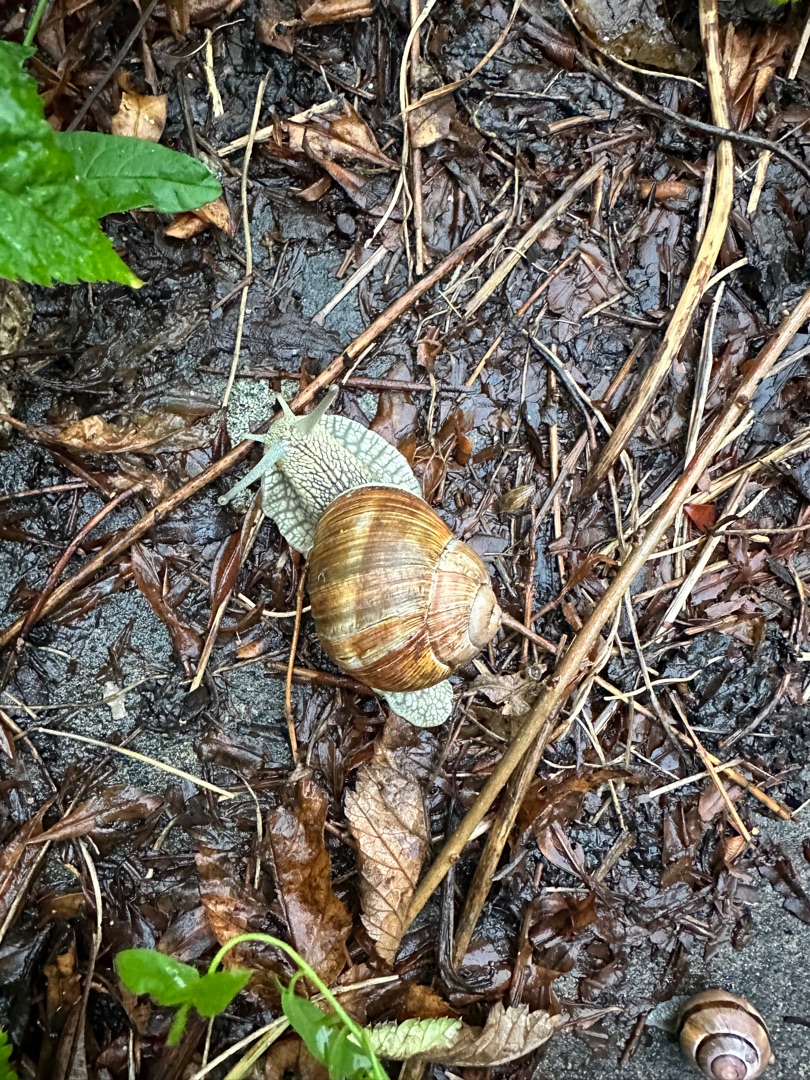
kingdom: Animalia
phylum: Mollusca
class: Gastropoda
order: Stylommatophora
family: Helicidae
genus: Helix
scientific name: Helix pomatia
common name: Vinbjergsnegl
